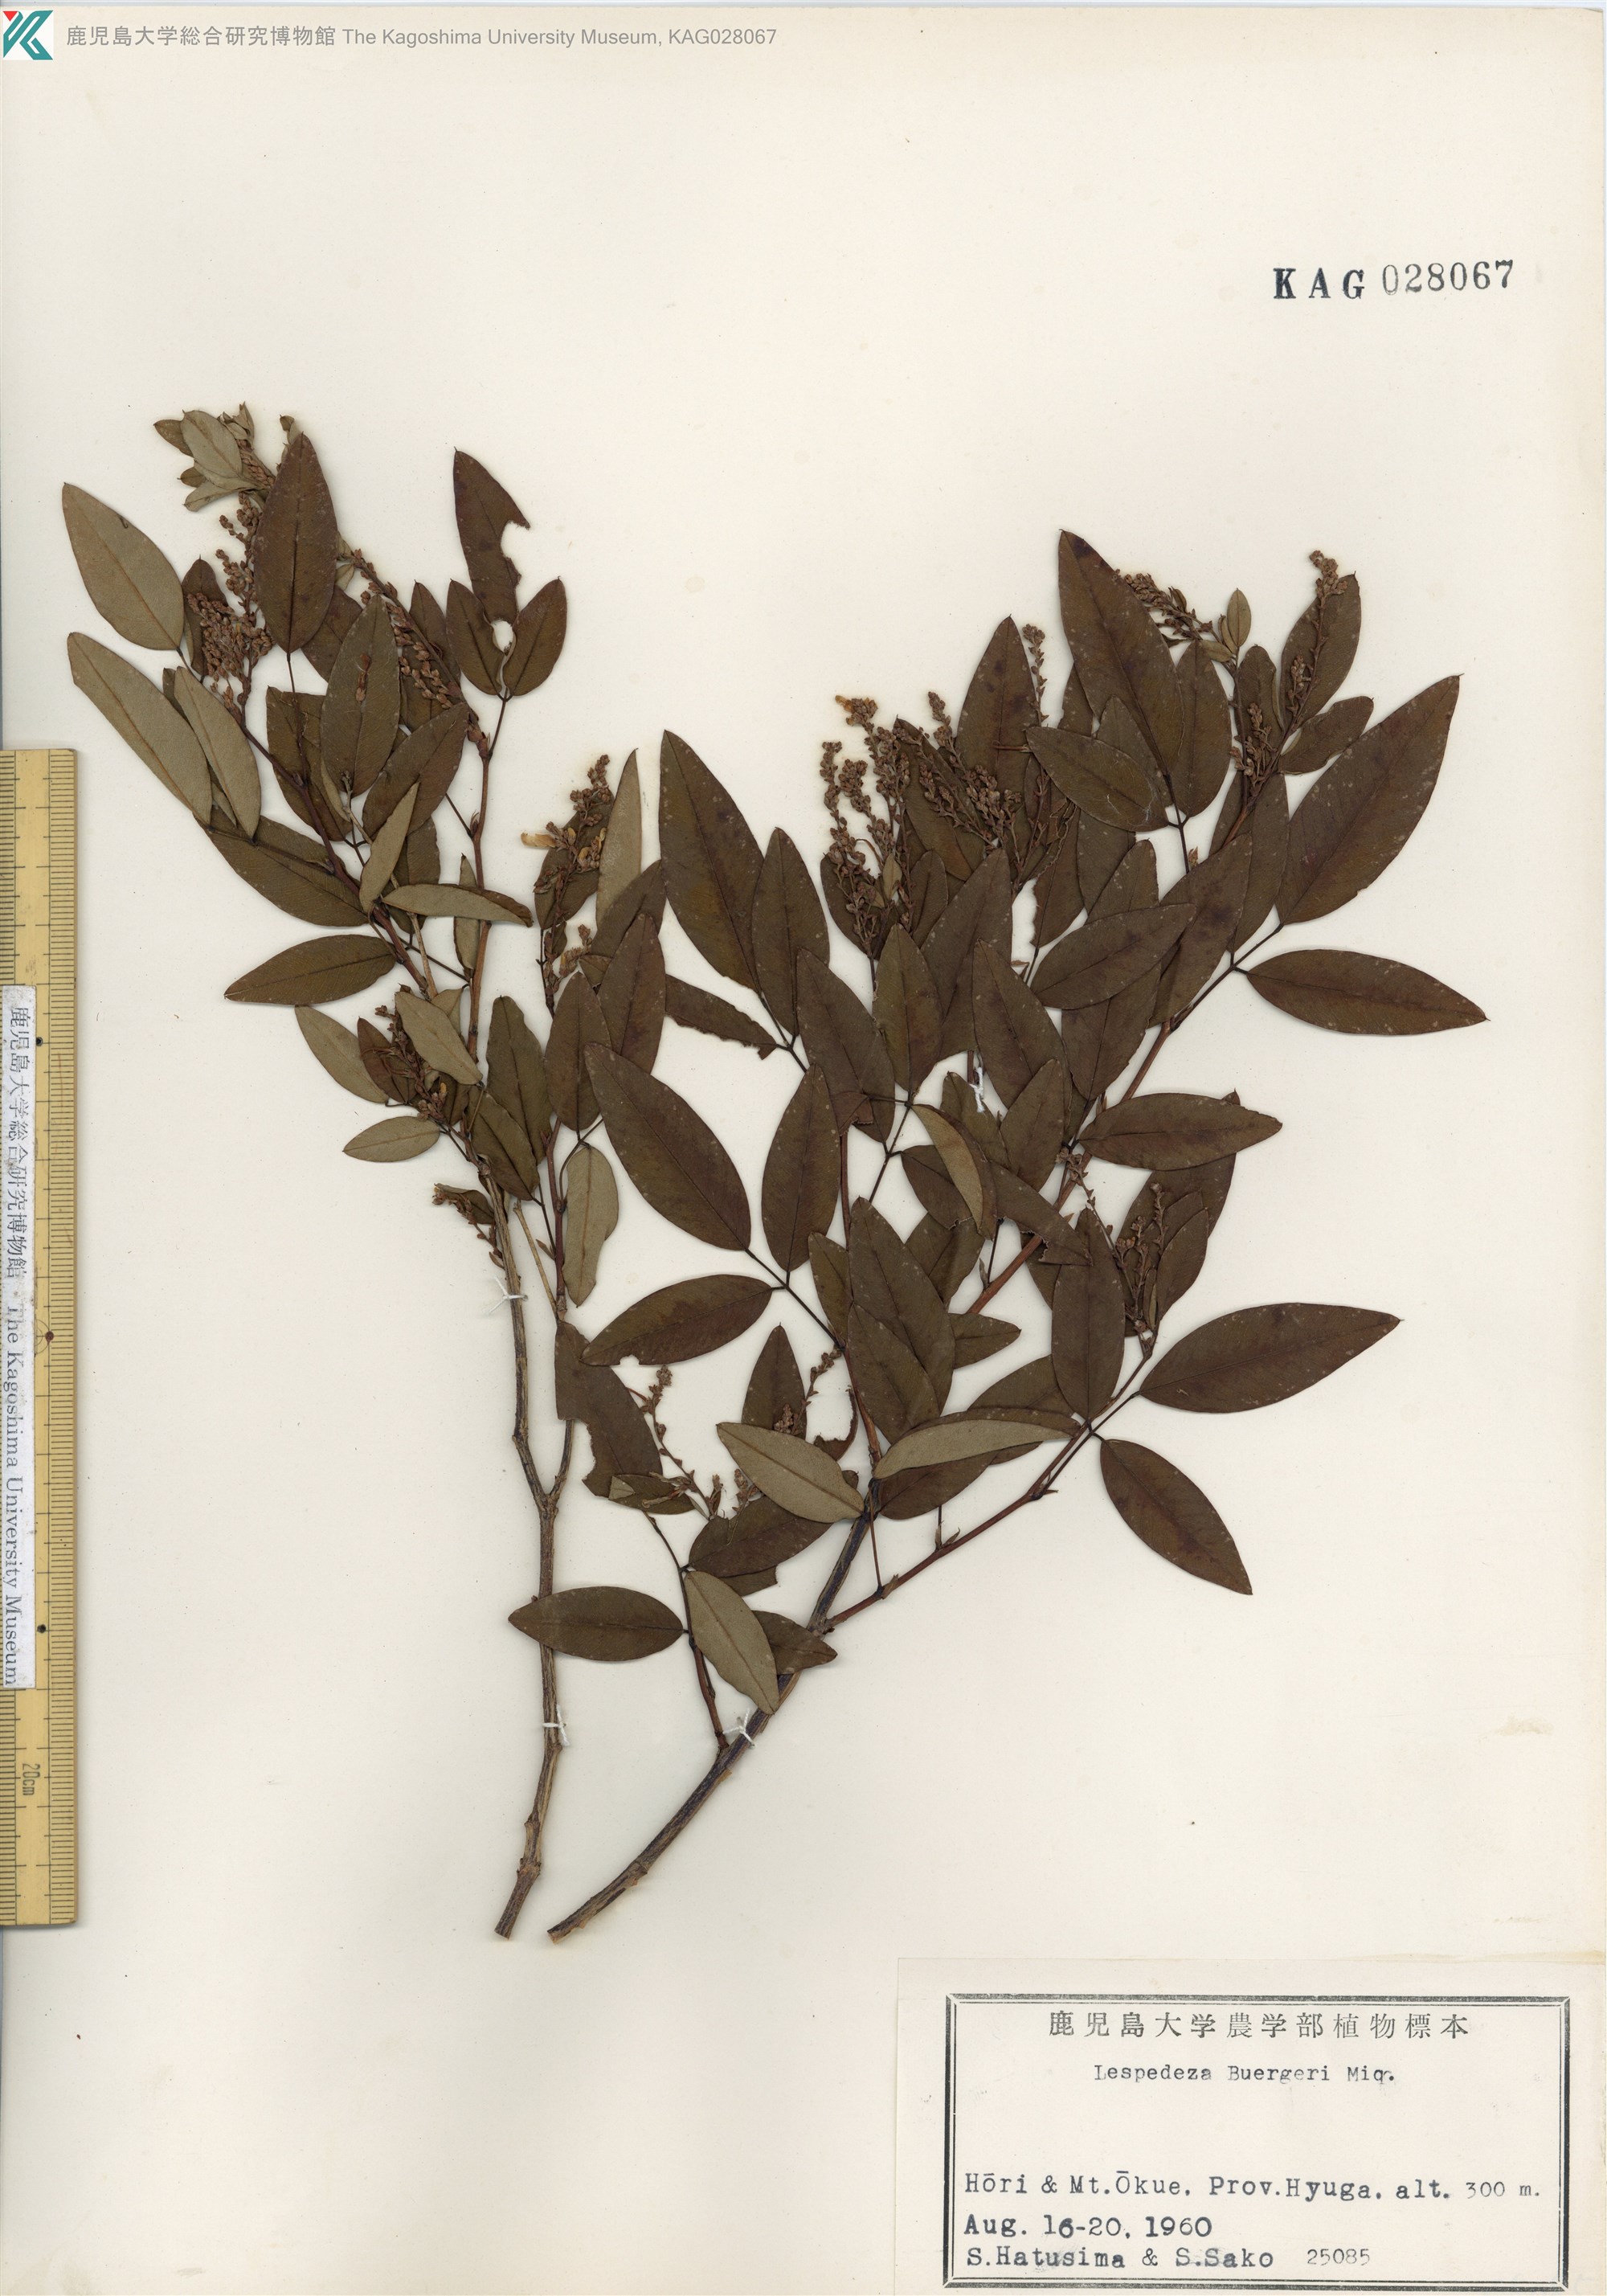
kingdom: Plantae
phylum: Tracheophyta
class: Magnoliopsida
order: Fabales
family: Fabaceae
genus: Lespedeza
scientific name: Lespedeza buergeri
